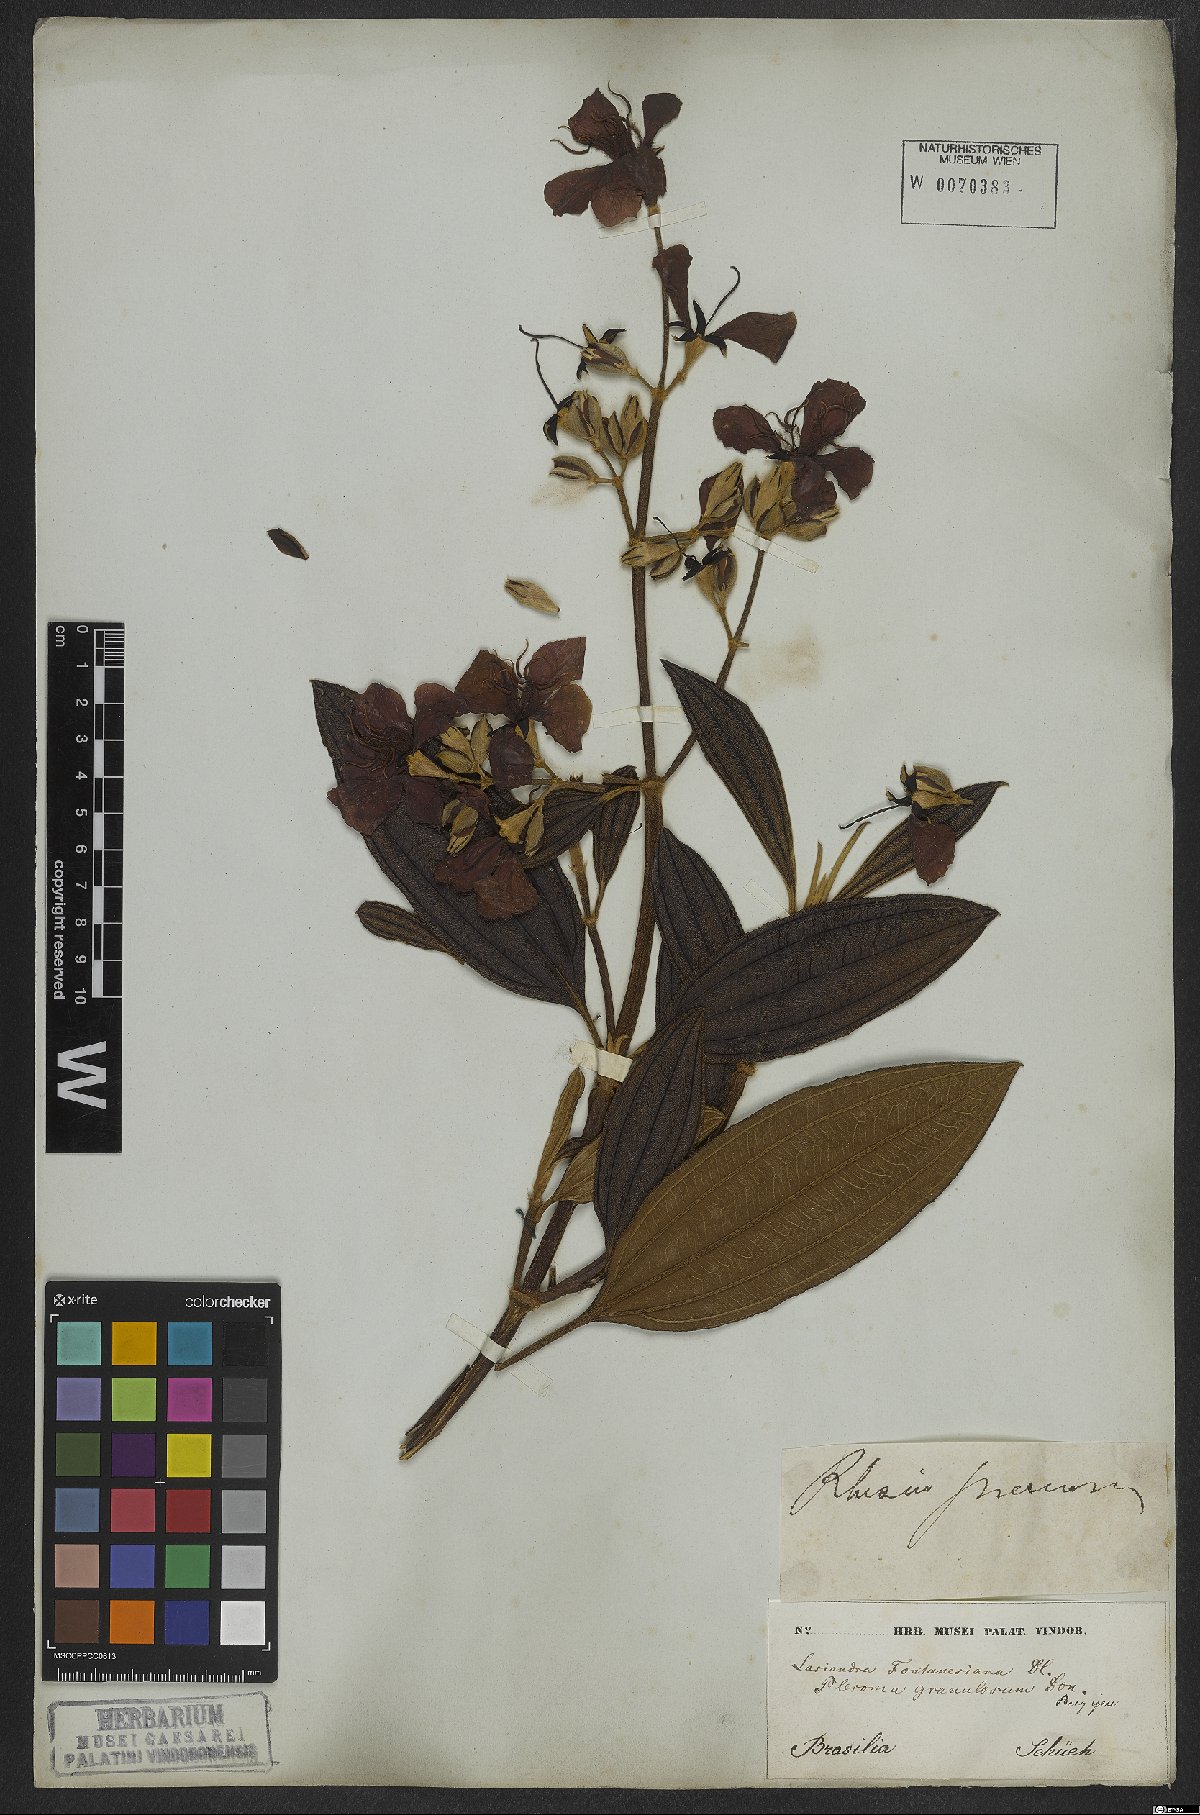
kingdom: Plantae
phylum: Tracheophyta
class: Magnoliopsida
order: Myrtales
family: Melastomataceae
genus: Pleroma
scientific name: Pleroma granulosum
